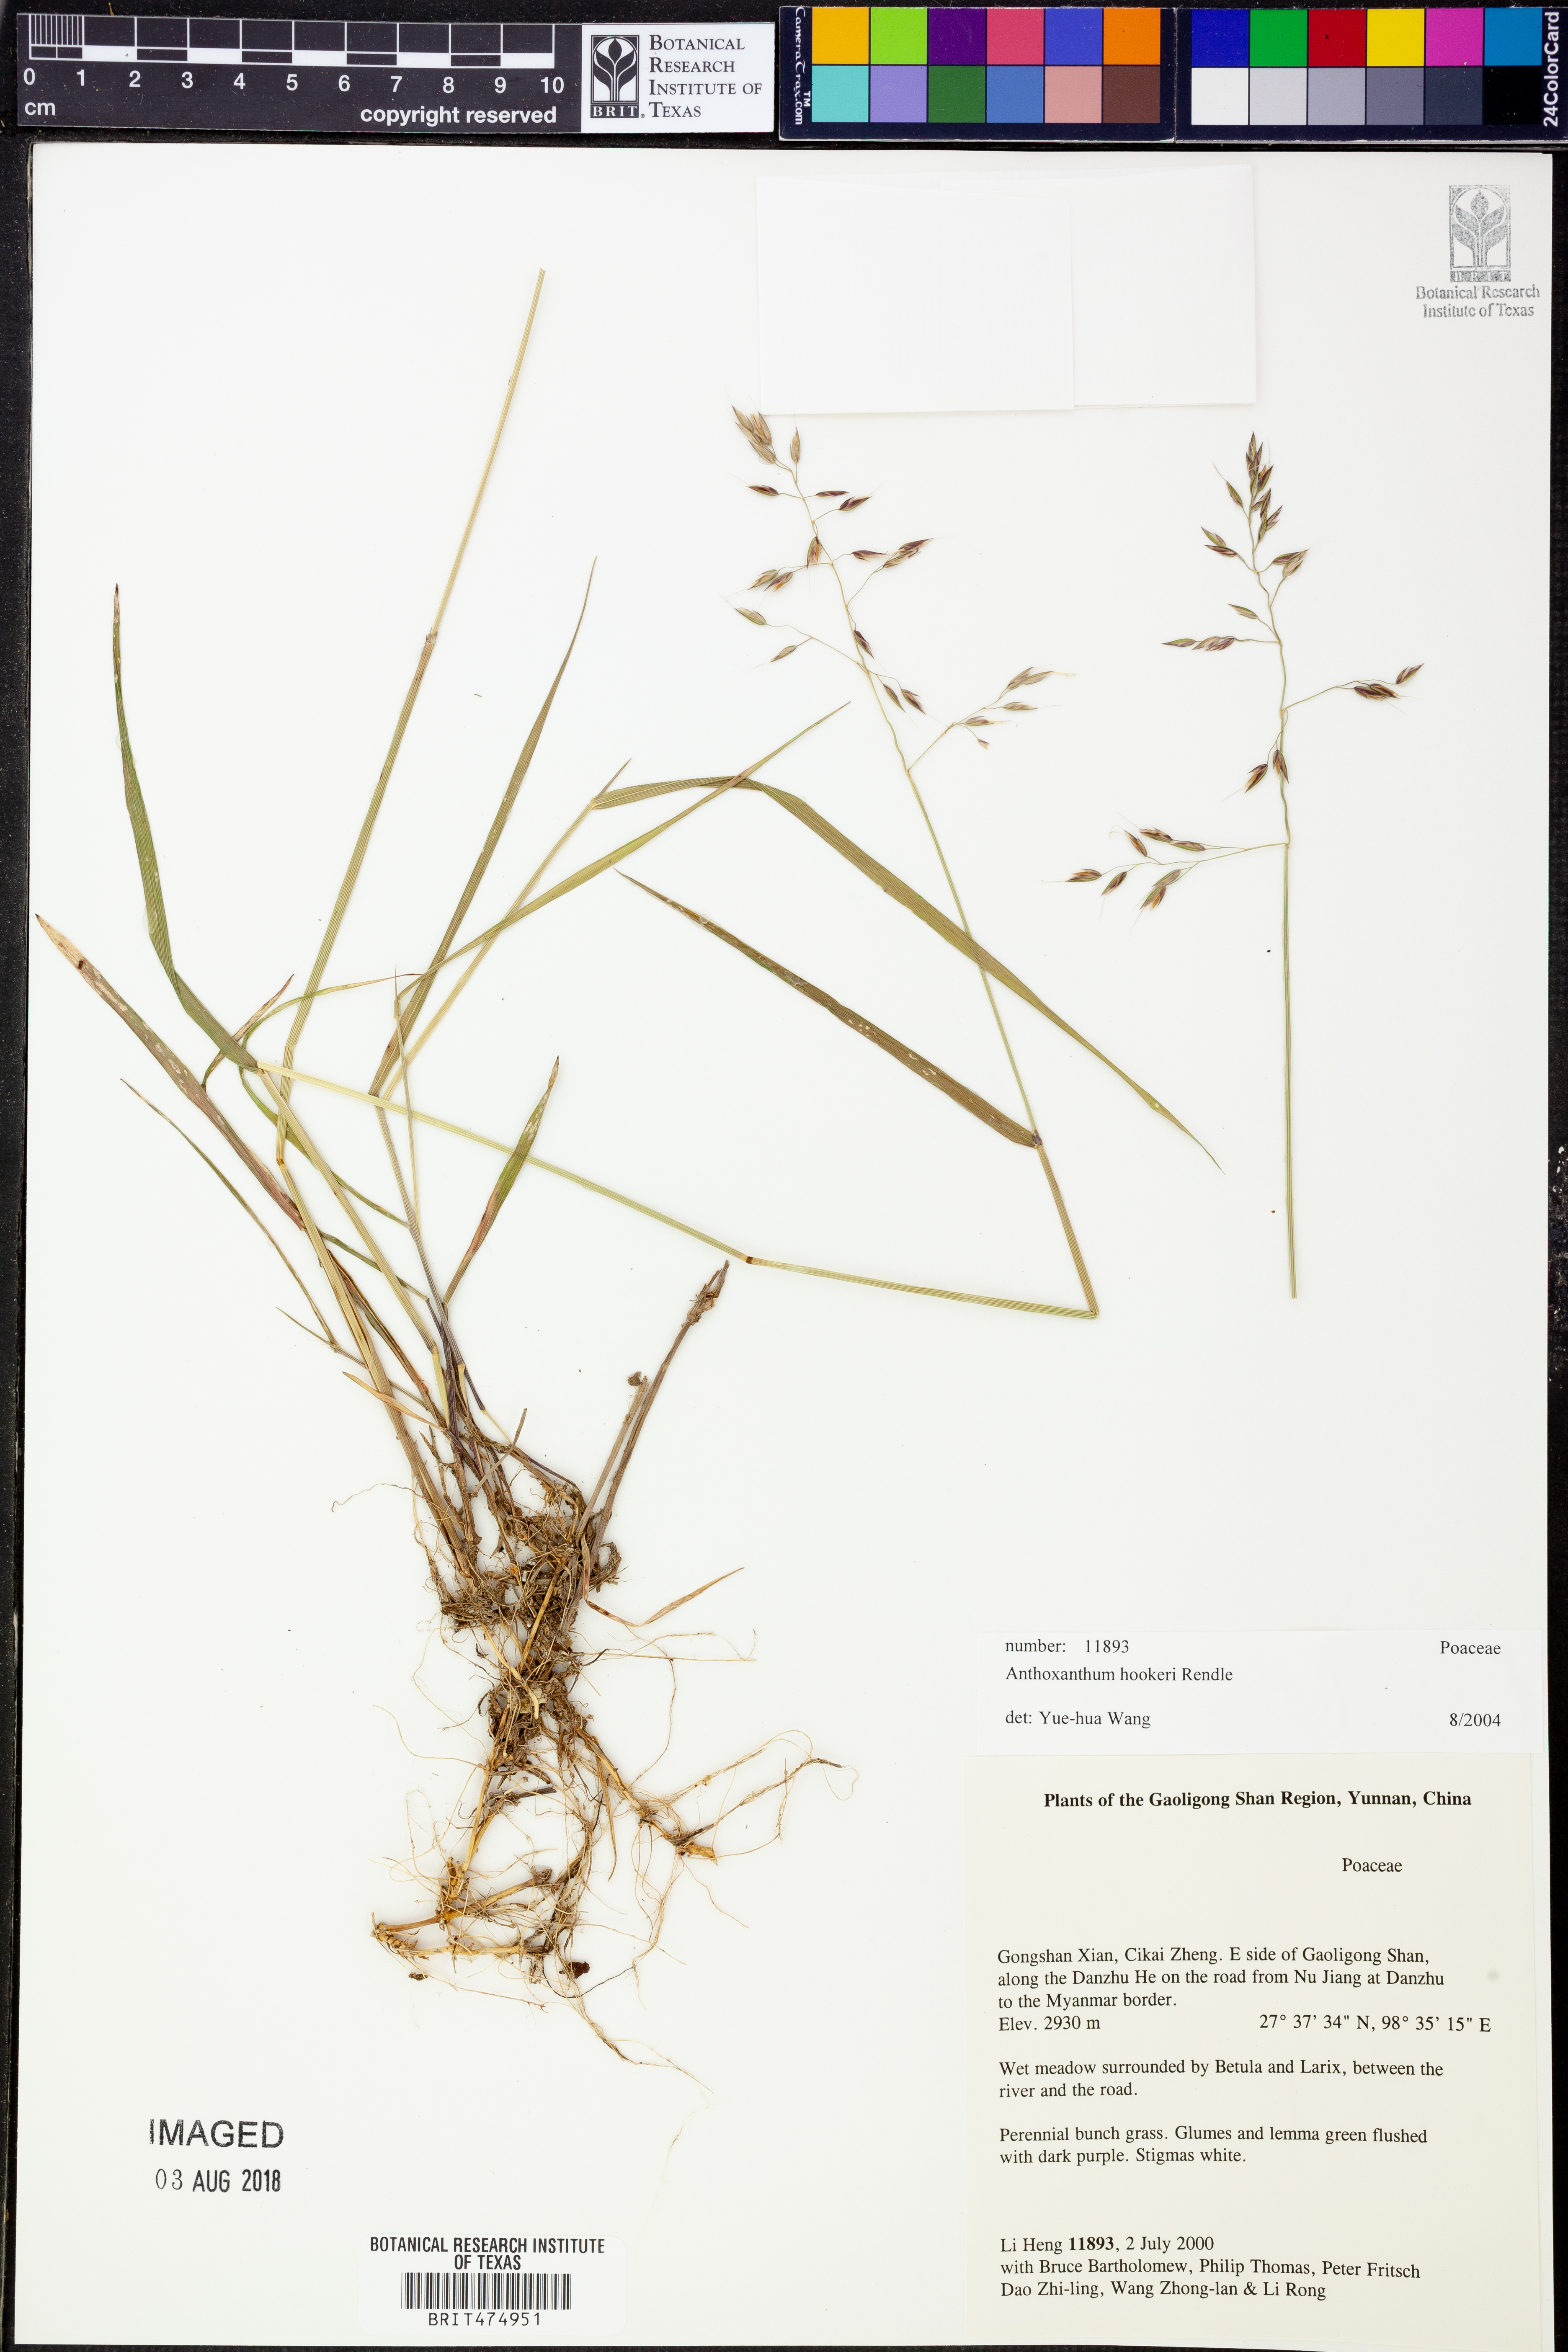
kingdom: Plantae
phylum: Tracheophyta
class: Liliopsida
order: Poales
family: Poaceae
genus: Anthoxanthum
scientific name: Anthoxanthum hookeri
